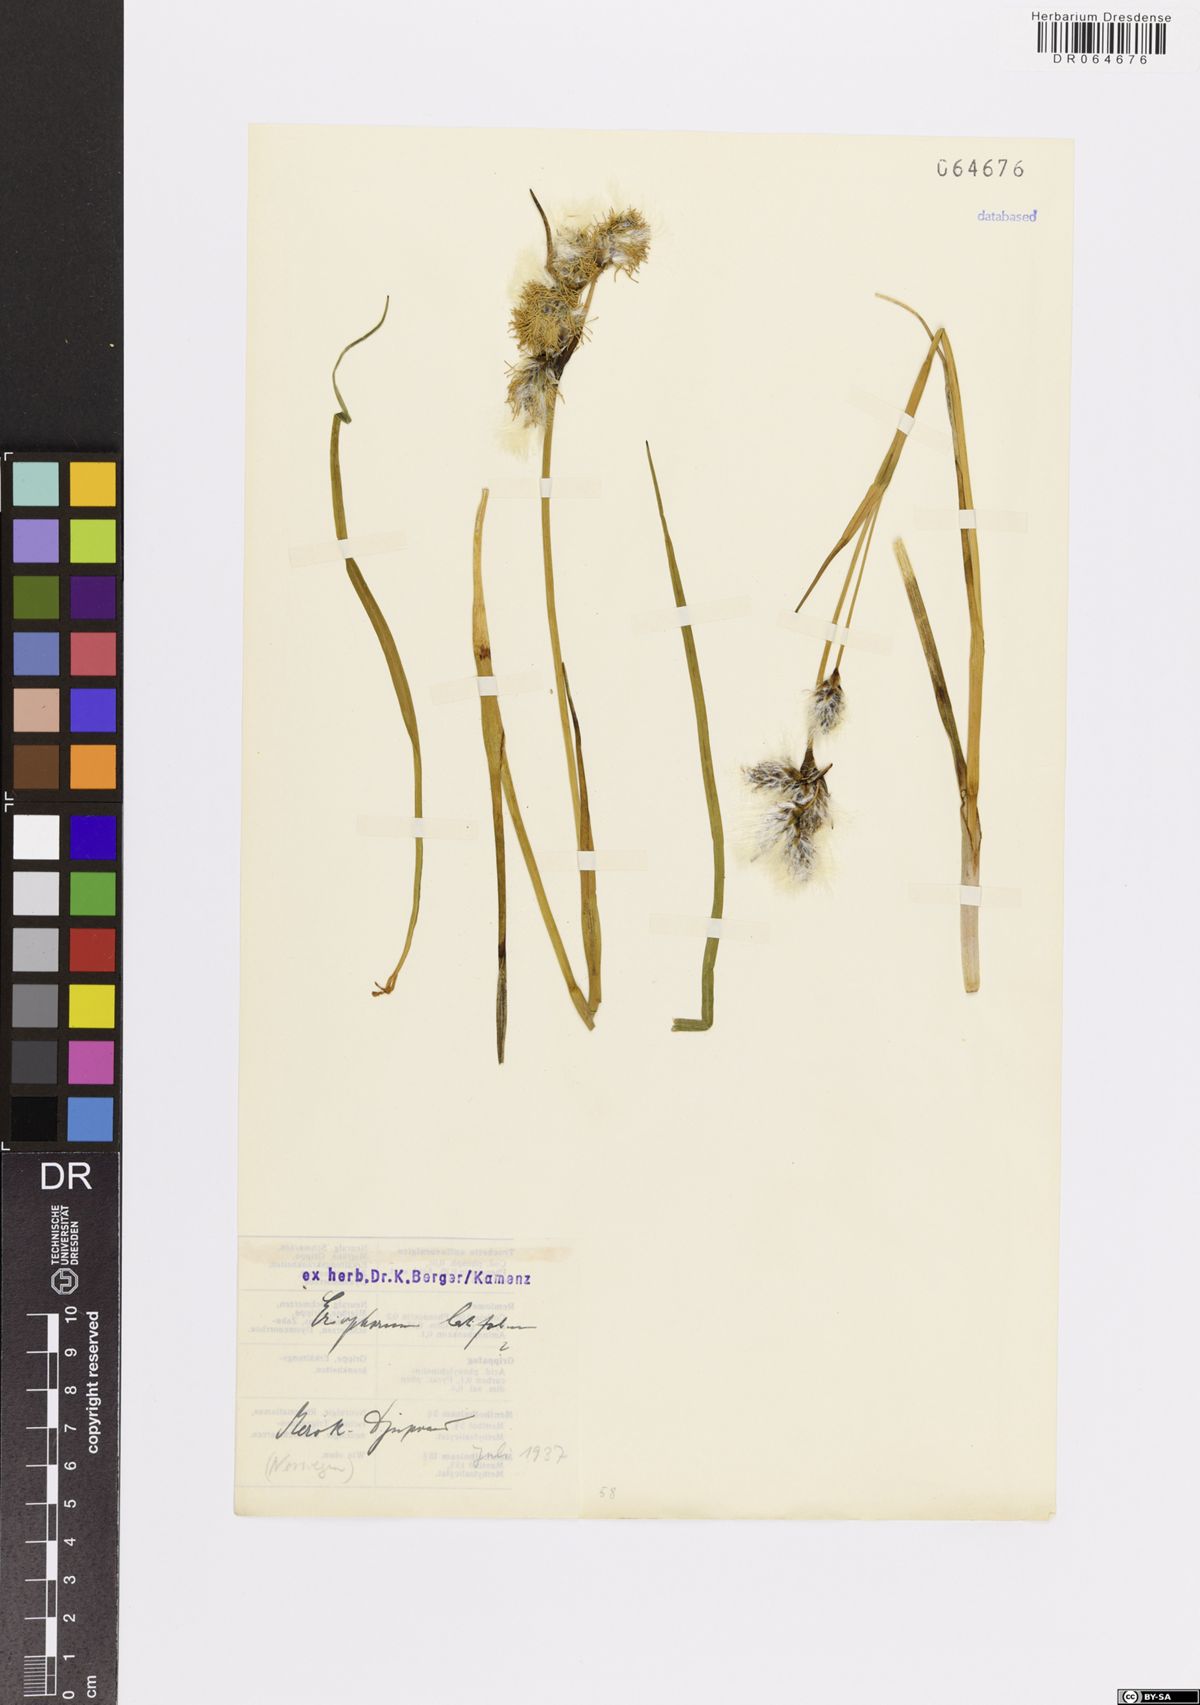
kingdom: Plantae
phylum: Tracheophyta
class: Liliopsida
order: Poales
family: Cyperaceae
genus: Eriophorum
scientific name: Eriophorum latifolium
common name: Broad-leaved cottongrass
